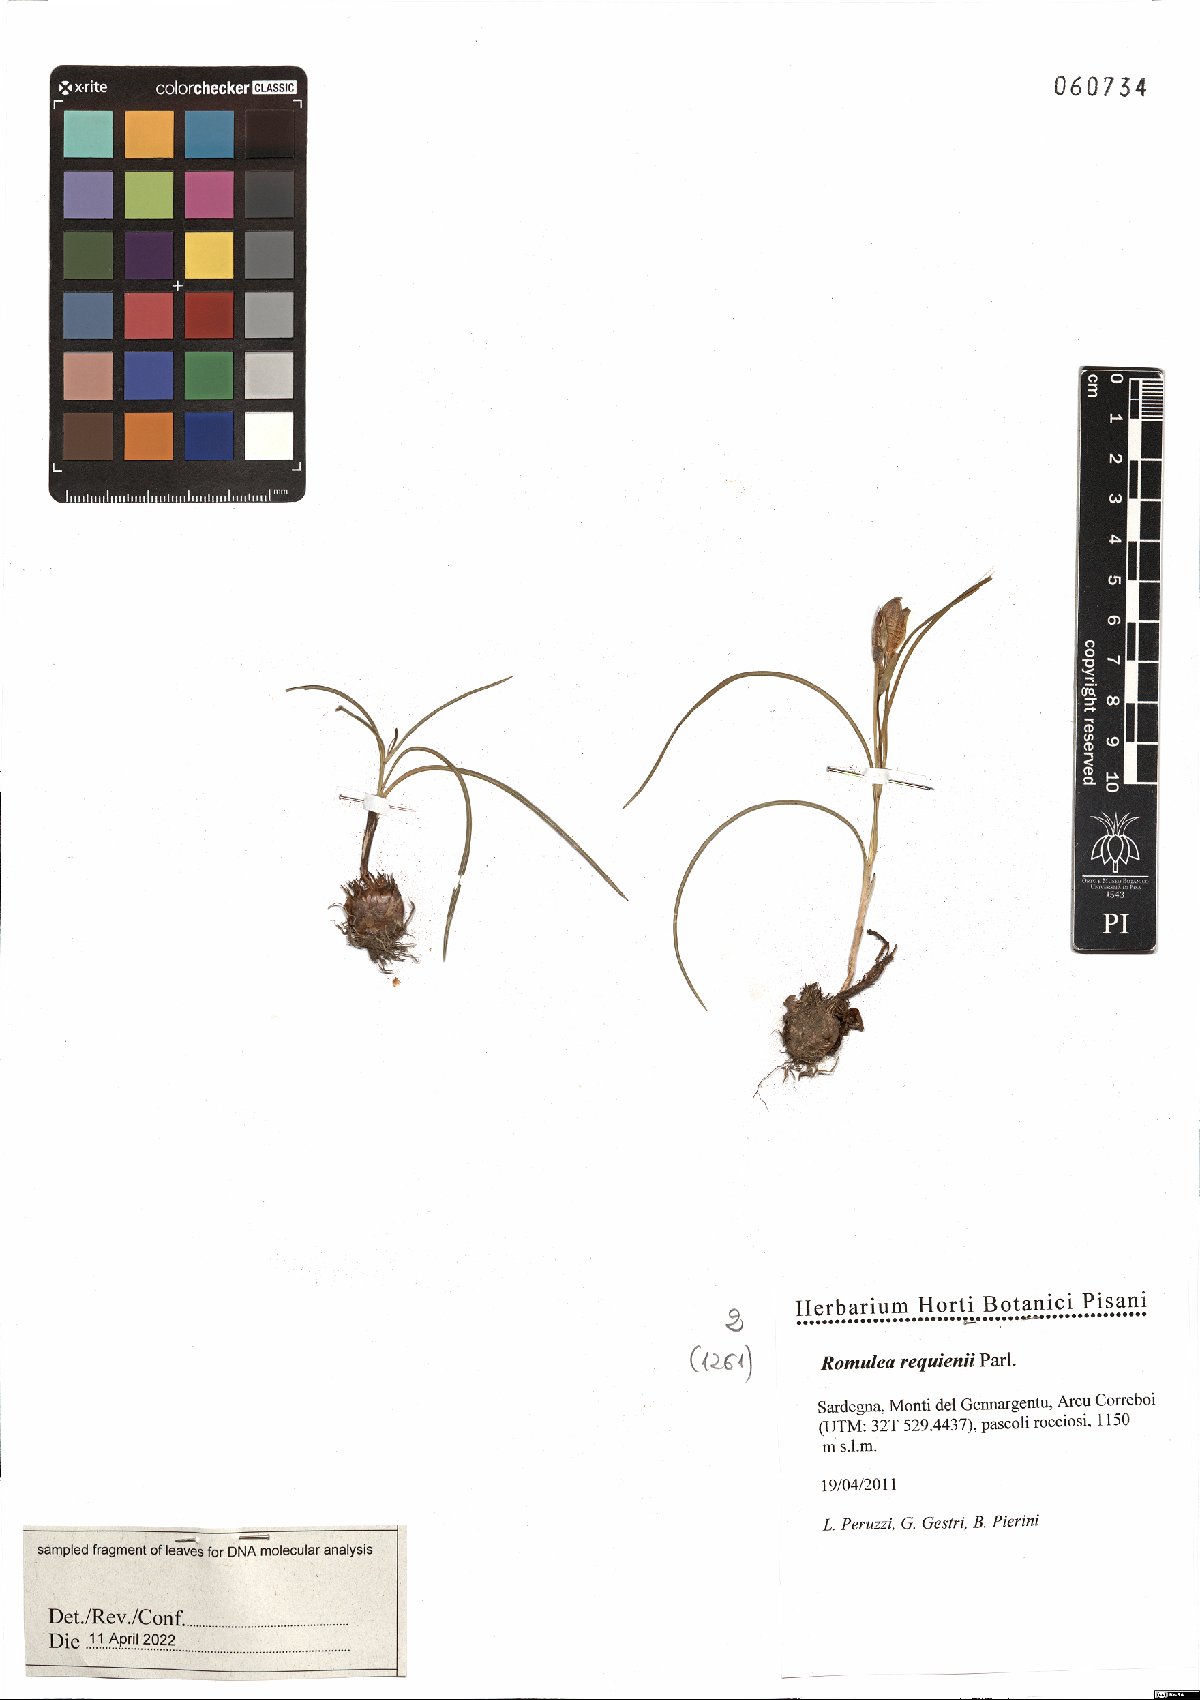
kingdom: Plantae
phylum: Tracheophyta
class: Liliopsida
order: Asparagales
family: Iridaceae
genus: Romulea
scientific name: Romulea requienii
